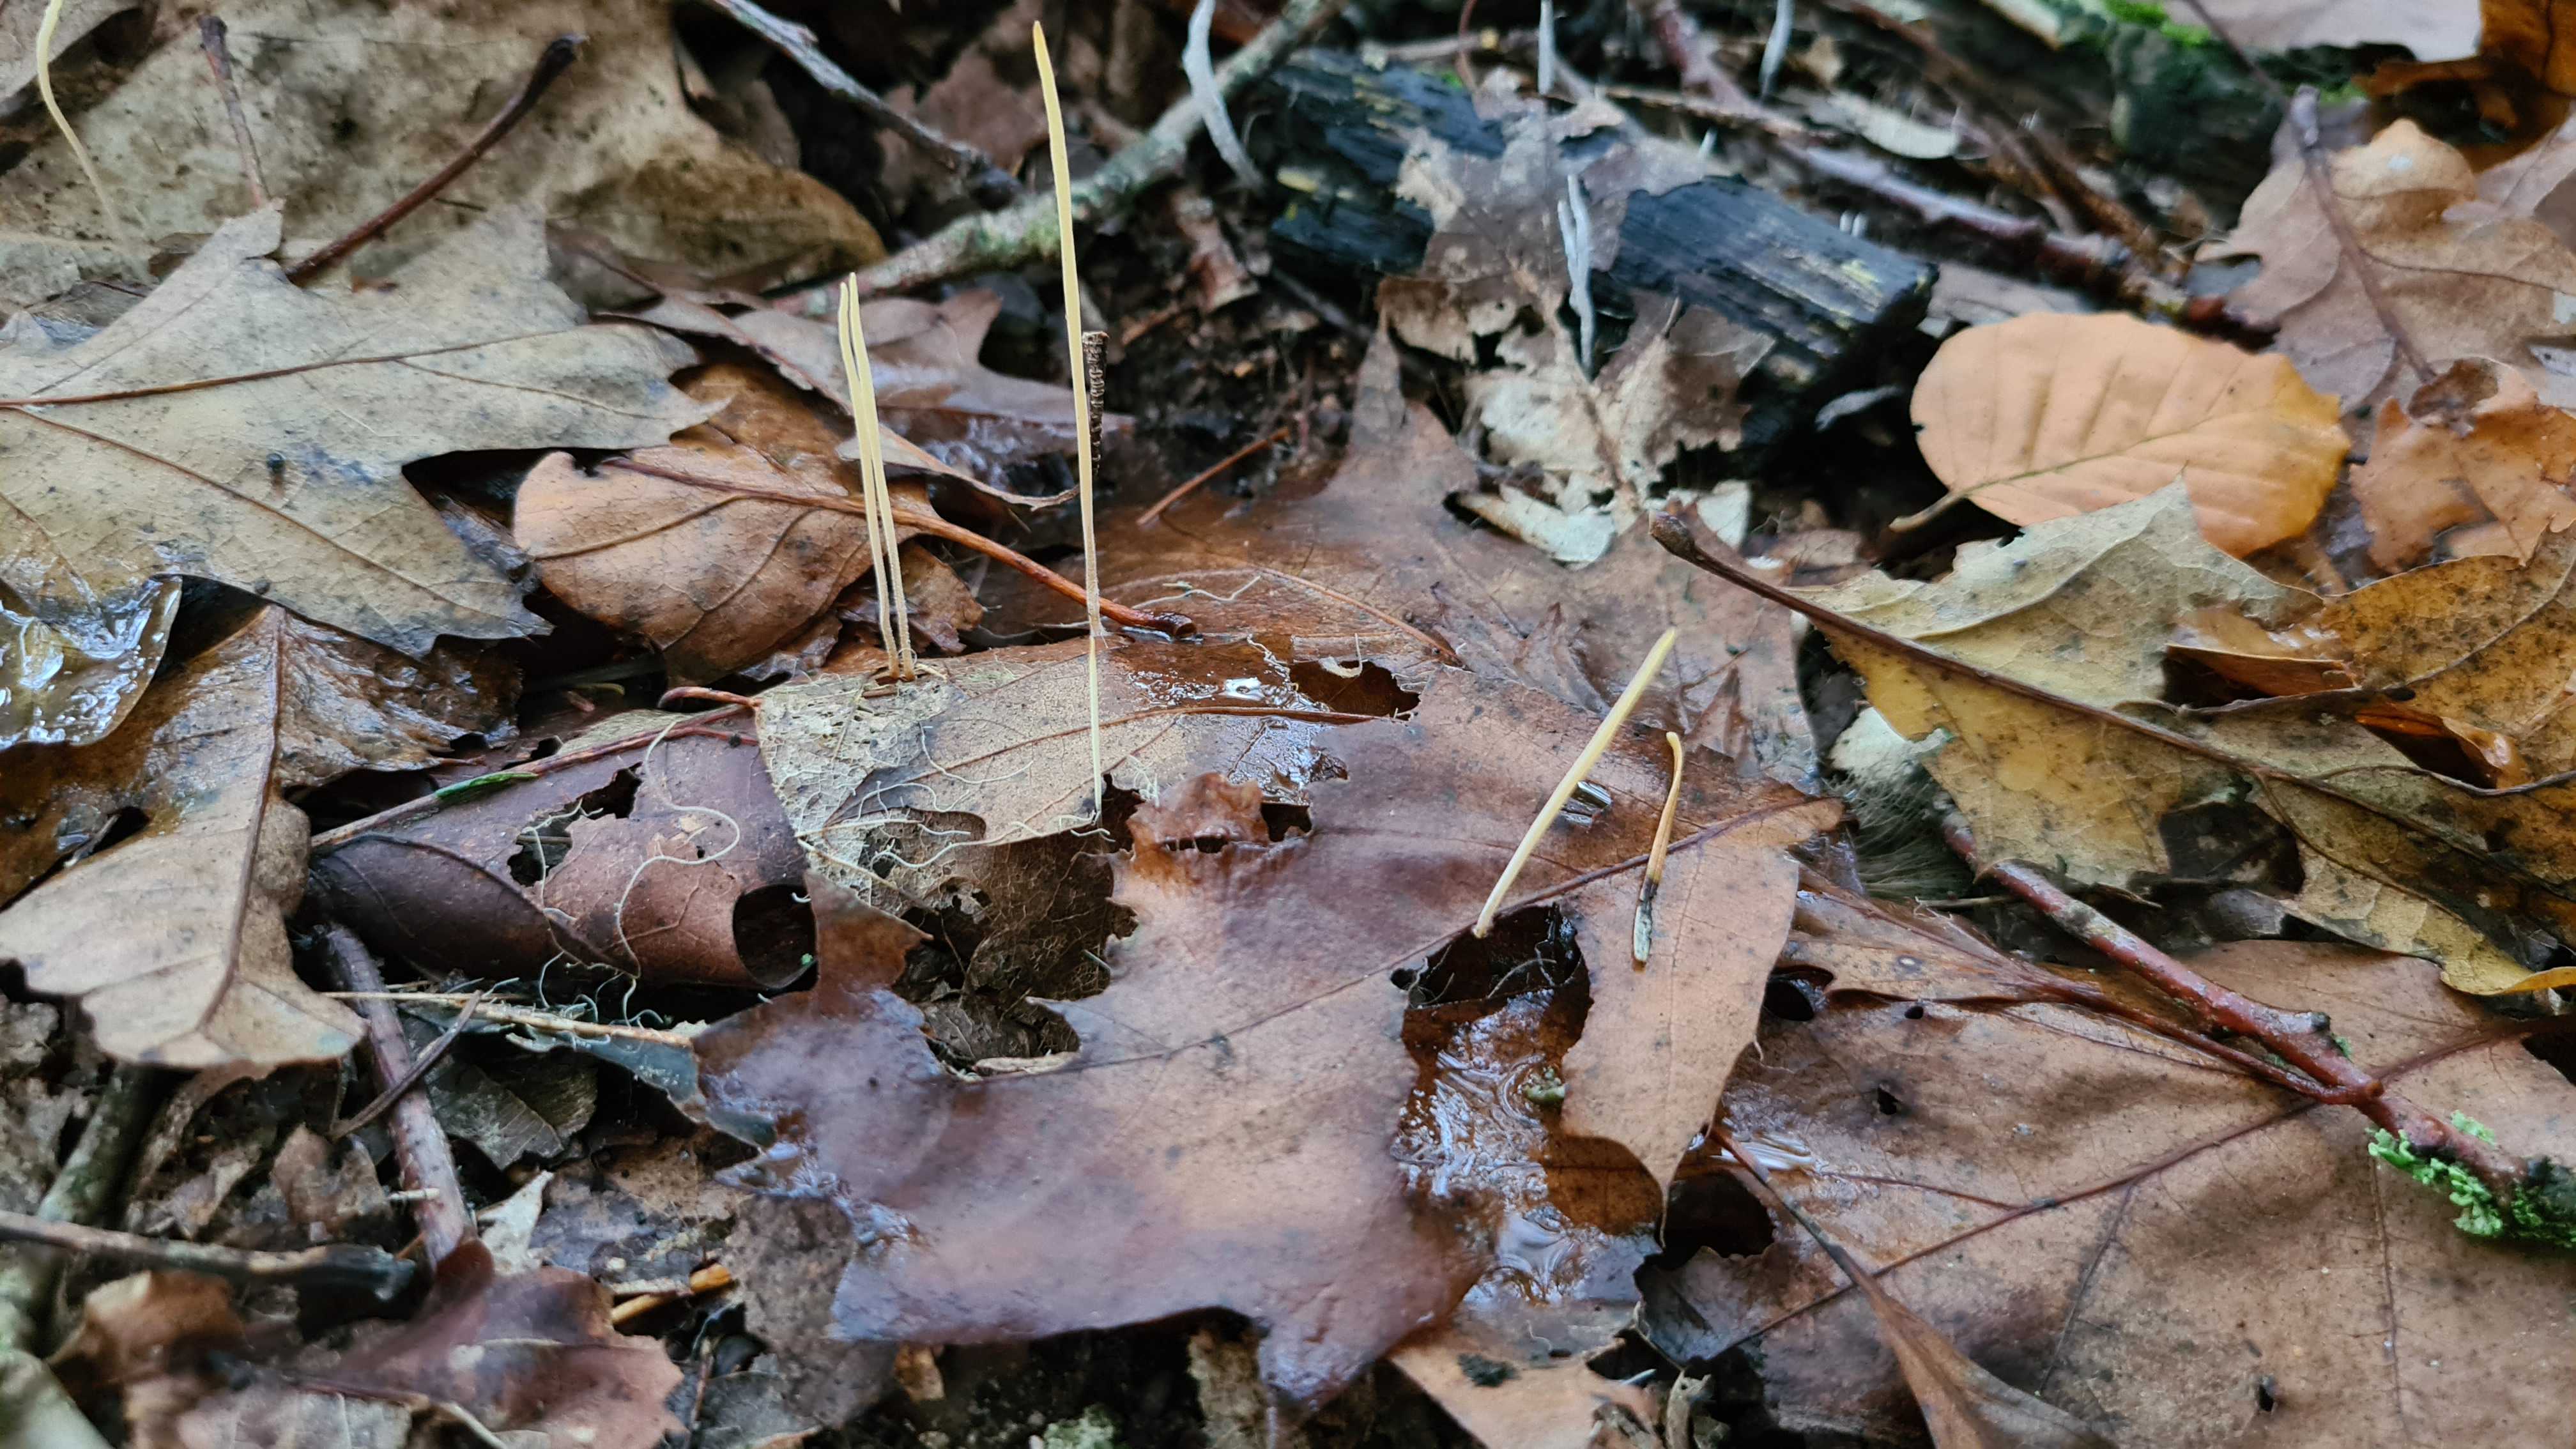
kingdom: Fungi
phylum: Basidiomycota
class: Agaricomycetes
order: Agaricales
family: Typhulaceae
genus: Typhula
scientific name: Typhula juncea
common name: trådagtig rørkølle
